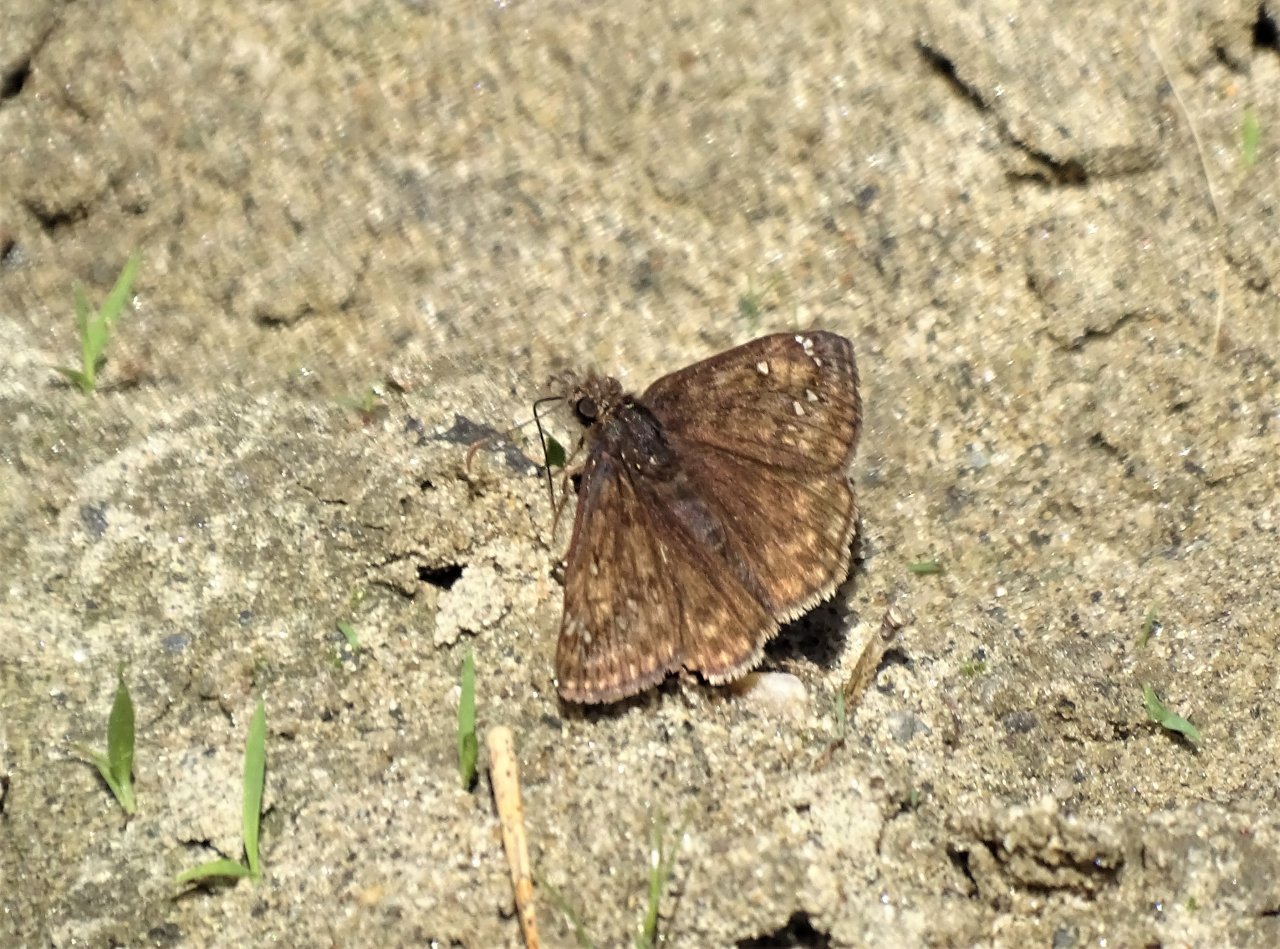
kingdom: Animalia
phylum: Arthropoda
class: Insecta
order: Lepidoptera
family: Hesperiidae
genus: Gesta
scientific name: Gesta
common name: Juvenal's Duskywing
